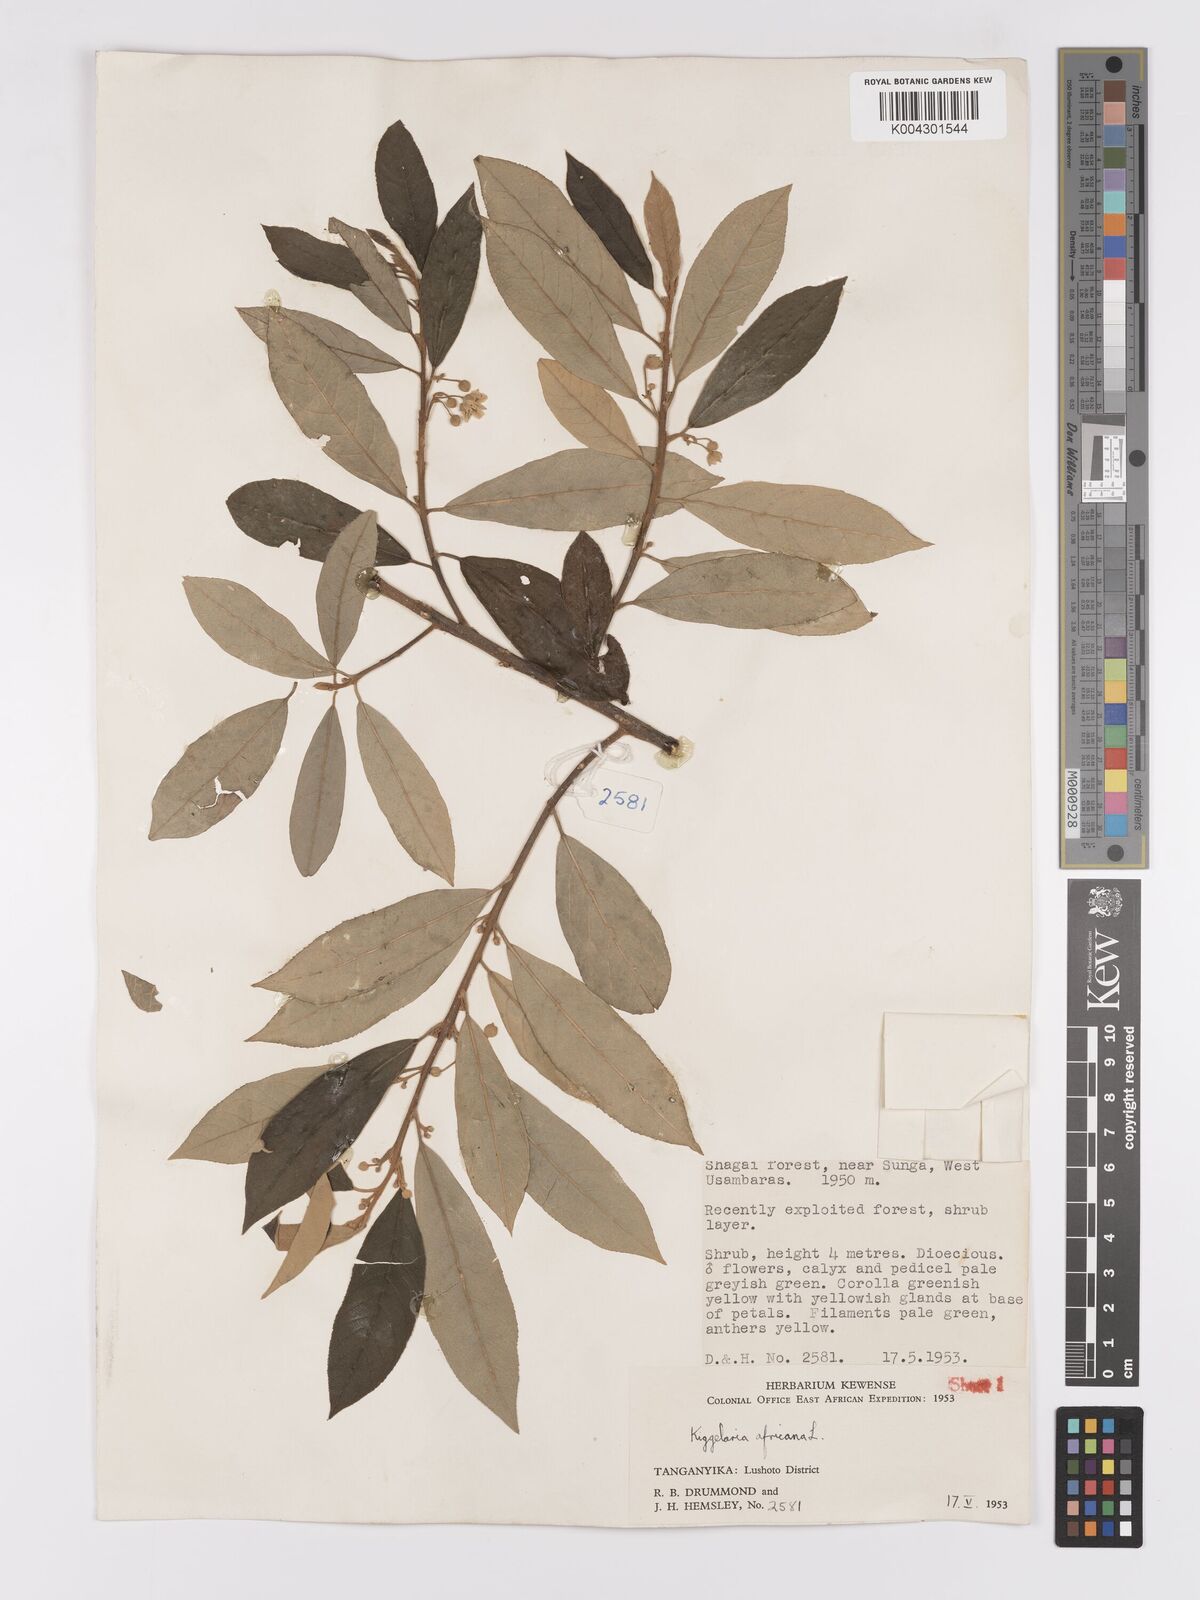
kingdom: Plantae
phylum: Tracheophyta
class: Magnoliopsida
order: Malpighiales
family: Achariaceae
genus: Kiggelaria
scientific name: Kiggelaria africana
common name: Wild peach
